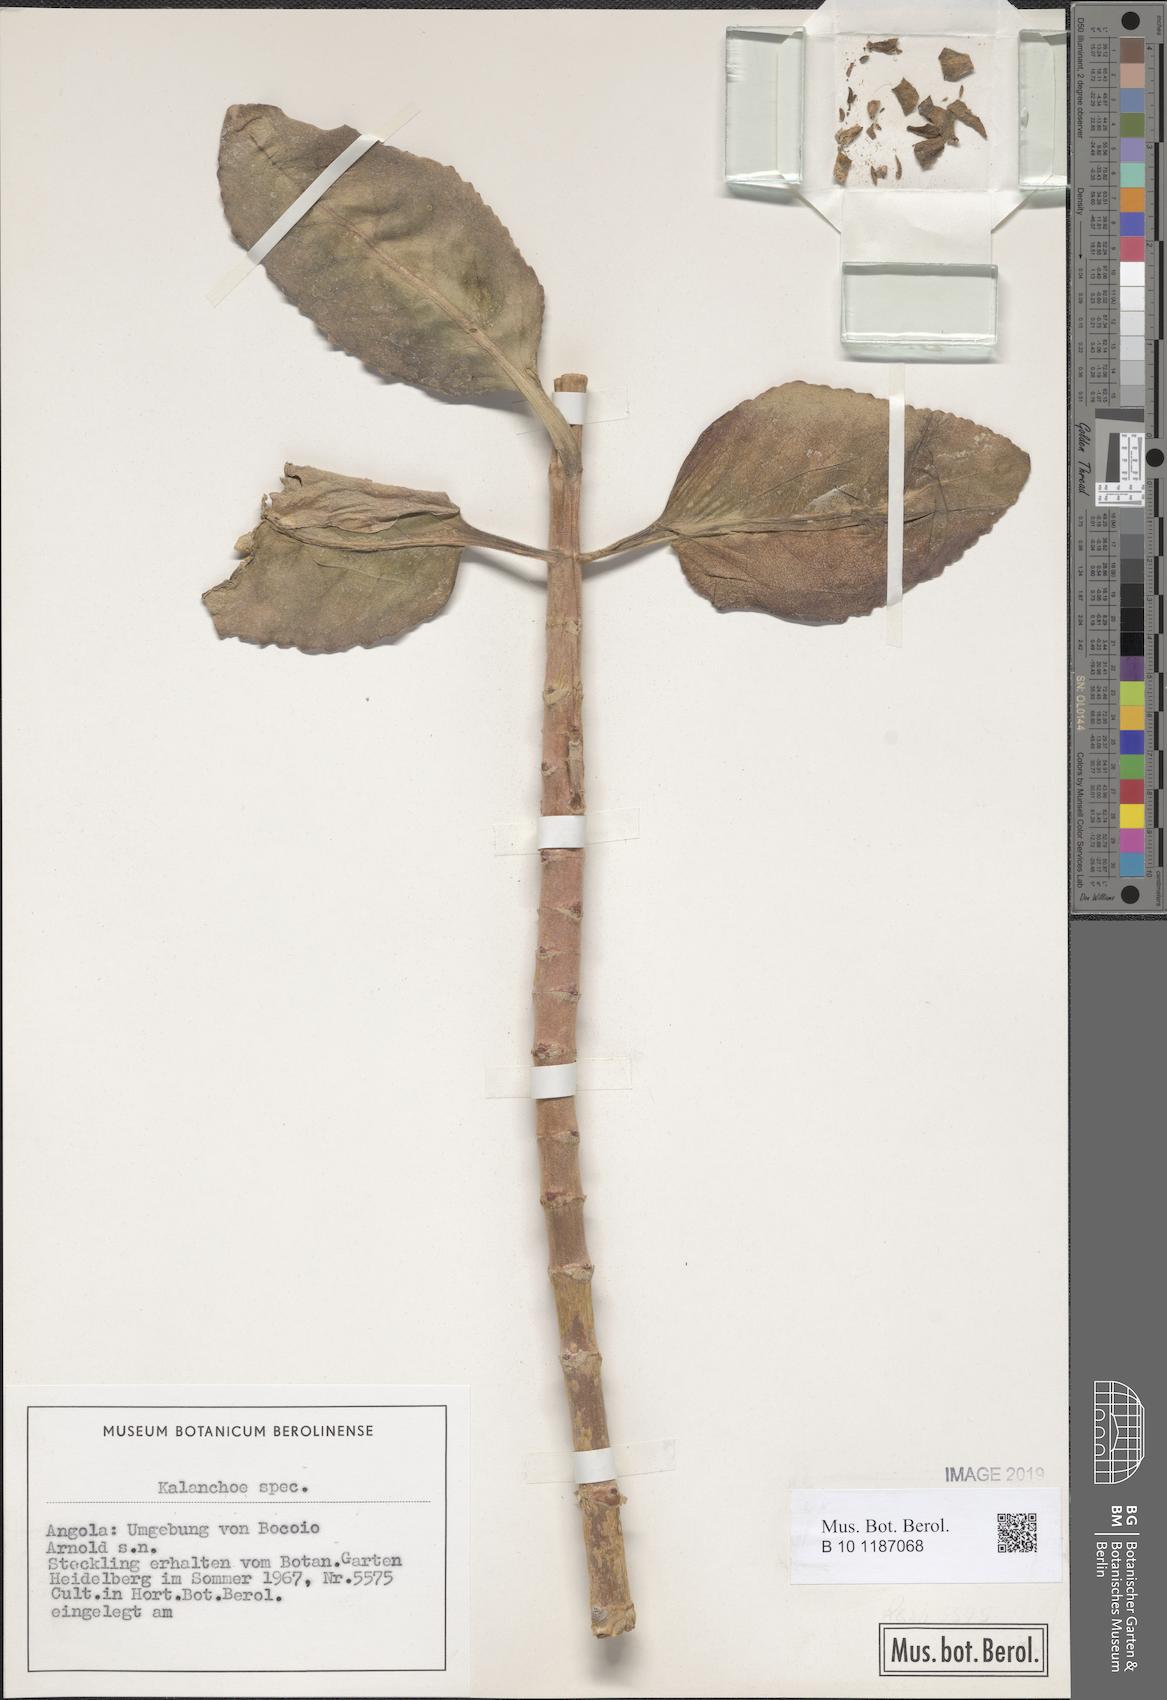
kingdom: Plantae
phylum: Tracheophyta
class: Magnoliopsida
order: Saxifragales
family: Crassulaceae
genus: Kalanchoe
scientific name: Kalanchoe
